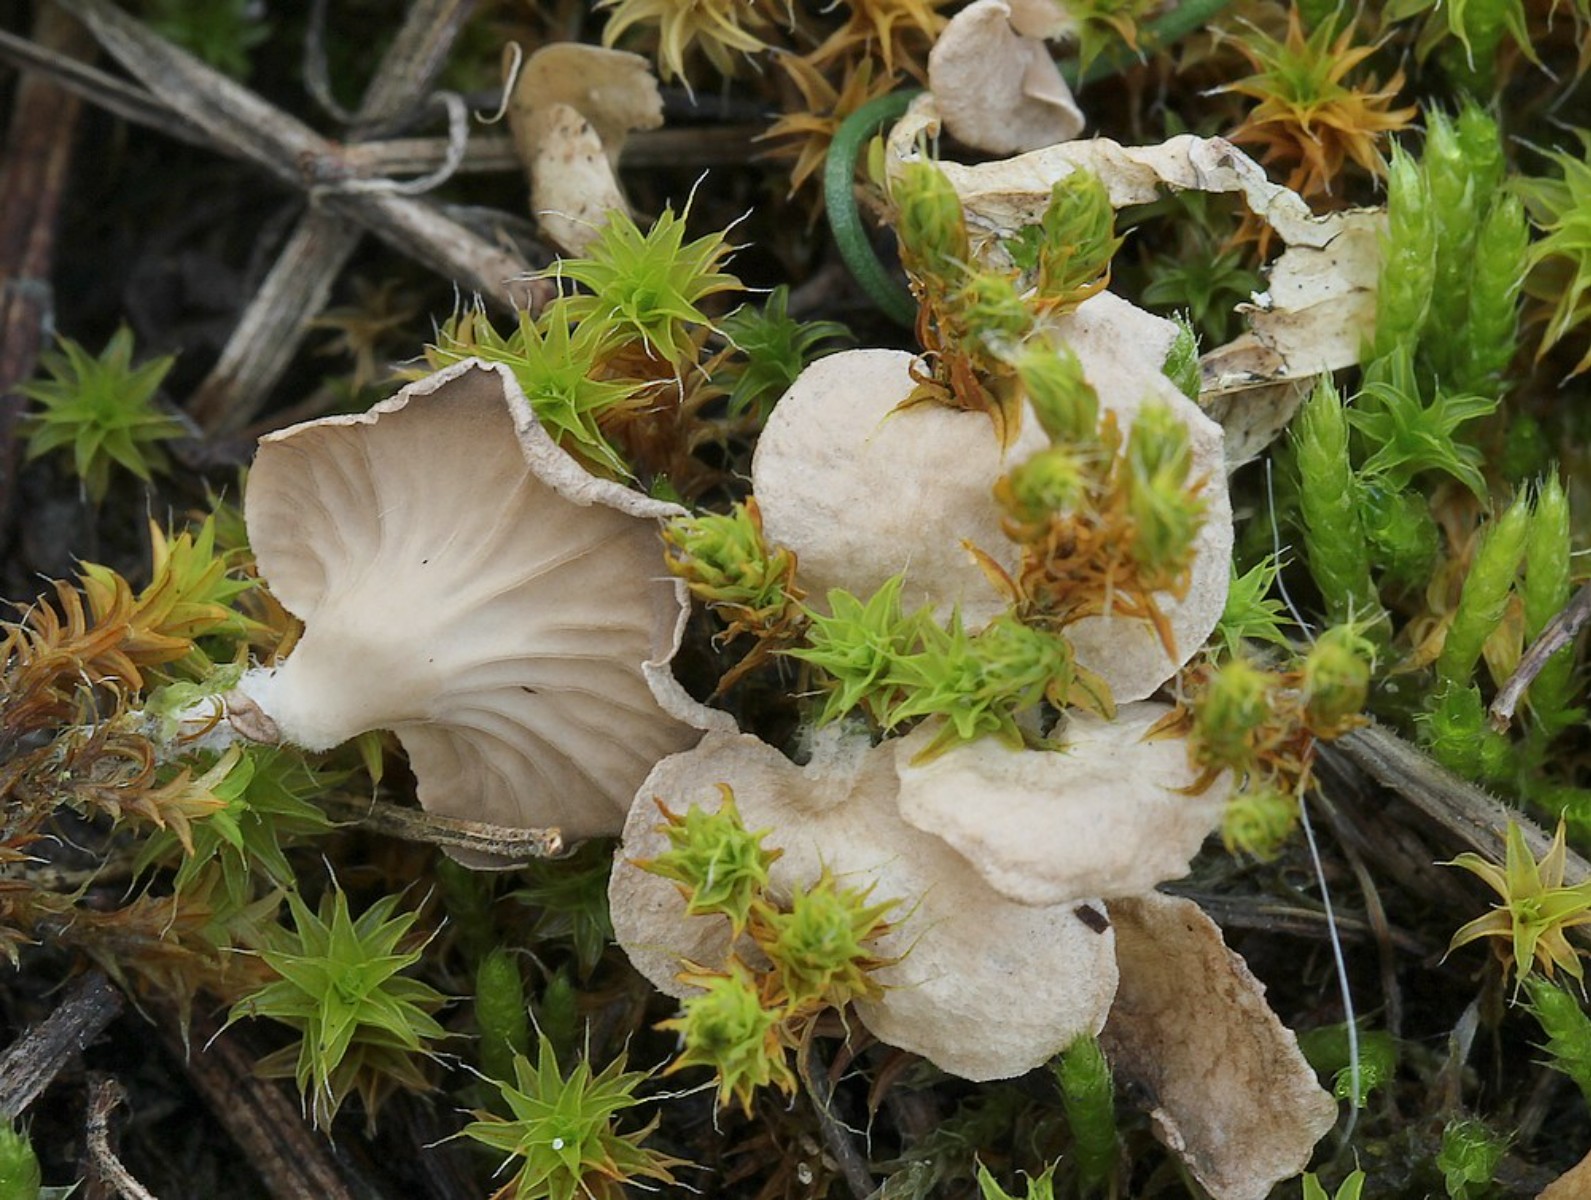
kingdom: Fungi
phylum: Basidiomycota
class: Agaricomycetes
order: Agaricales
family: Hygrophoraceae
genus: Arrhenia
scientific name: Arrhenia spathulata
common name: skæv fontænehat
